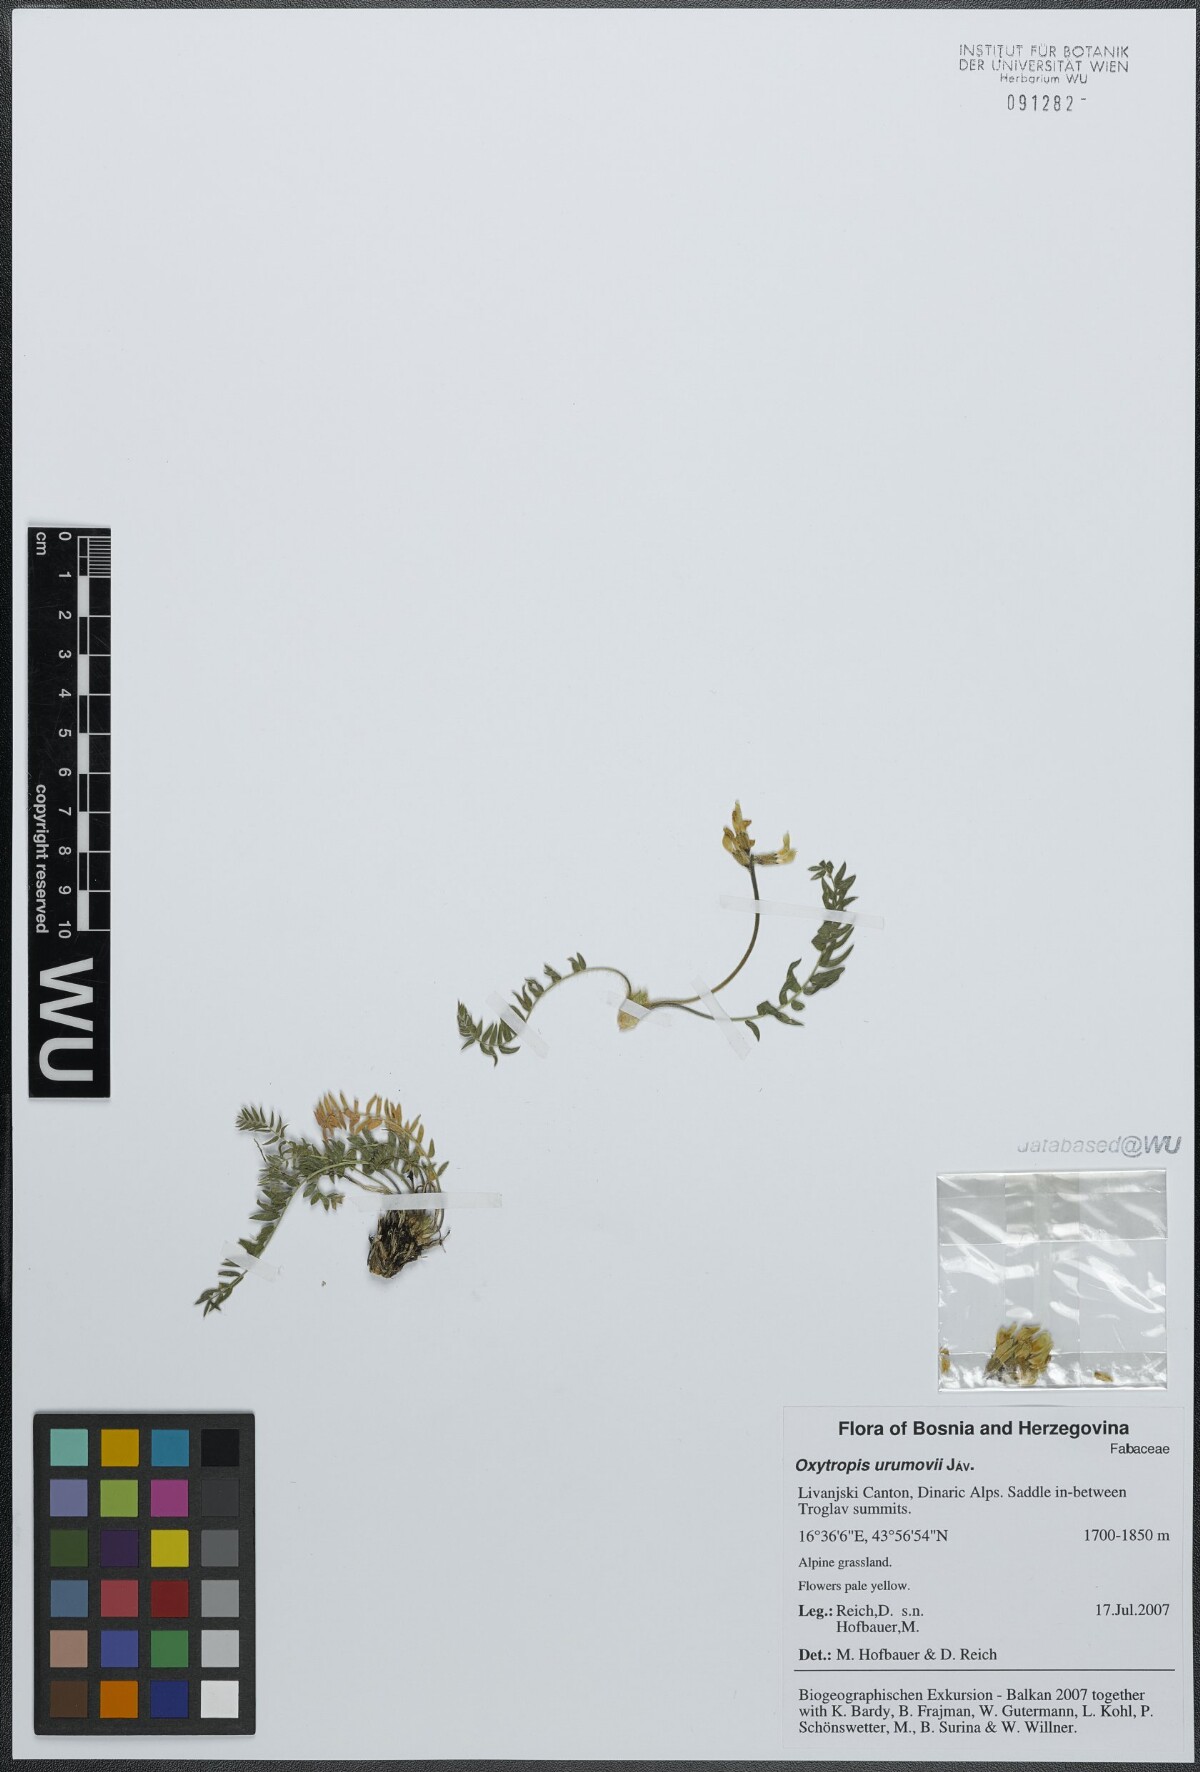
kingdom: Plantae
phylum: Tracheophyta
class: Magnoliopsida
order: Fabales
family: Fabaceae
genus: Oxytropis
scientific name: Oxytropis urumovii
